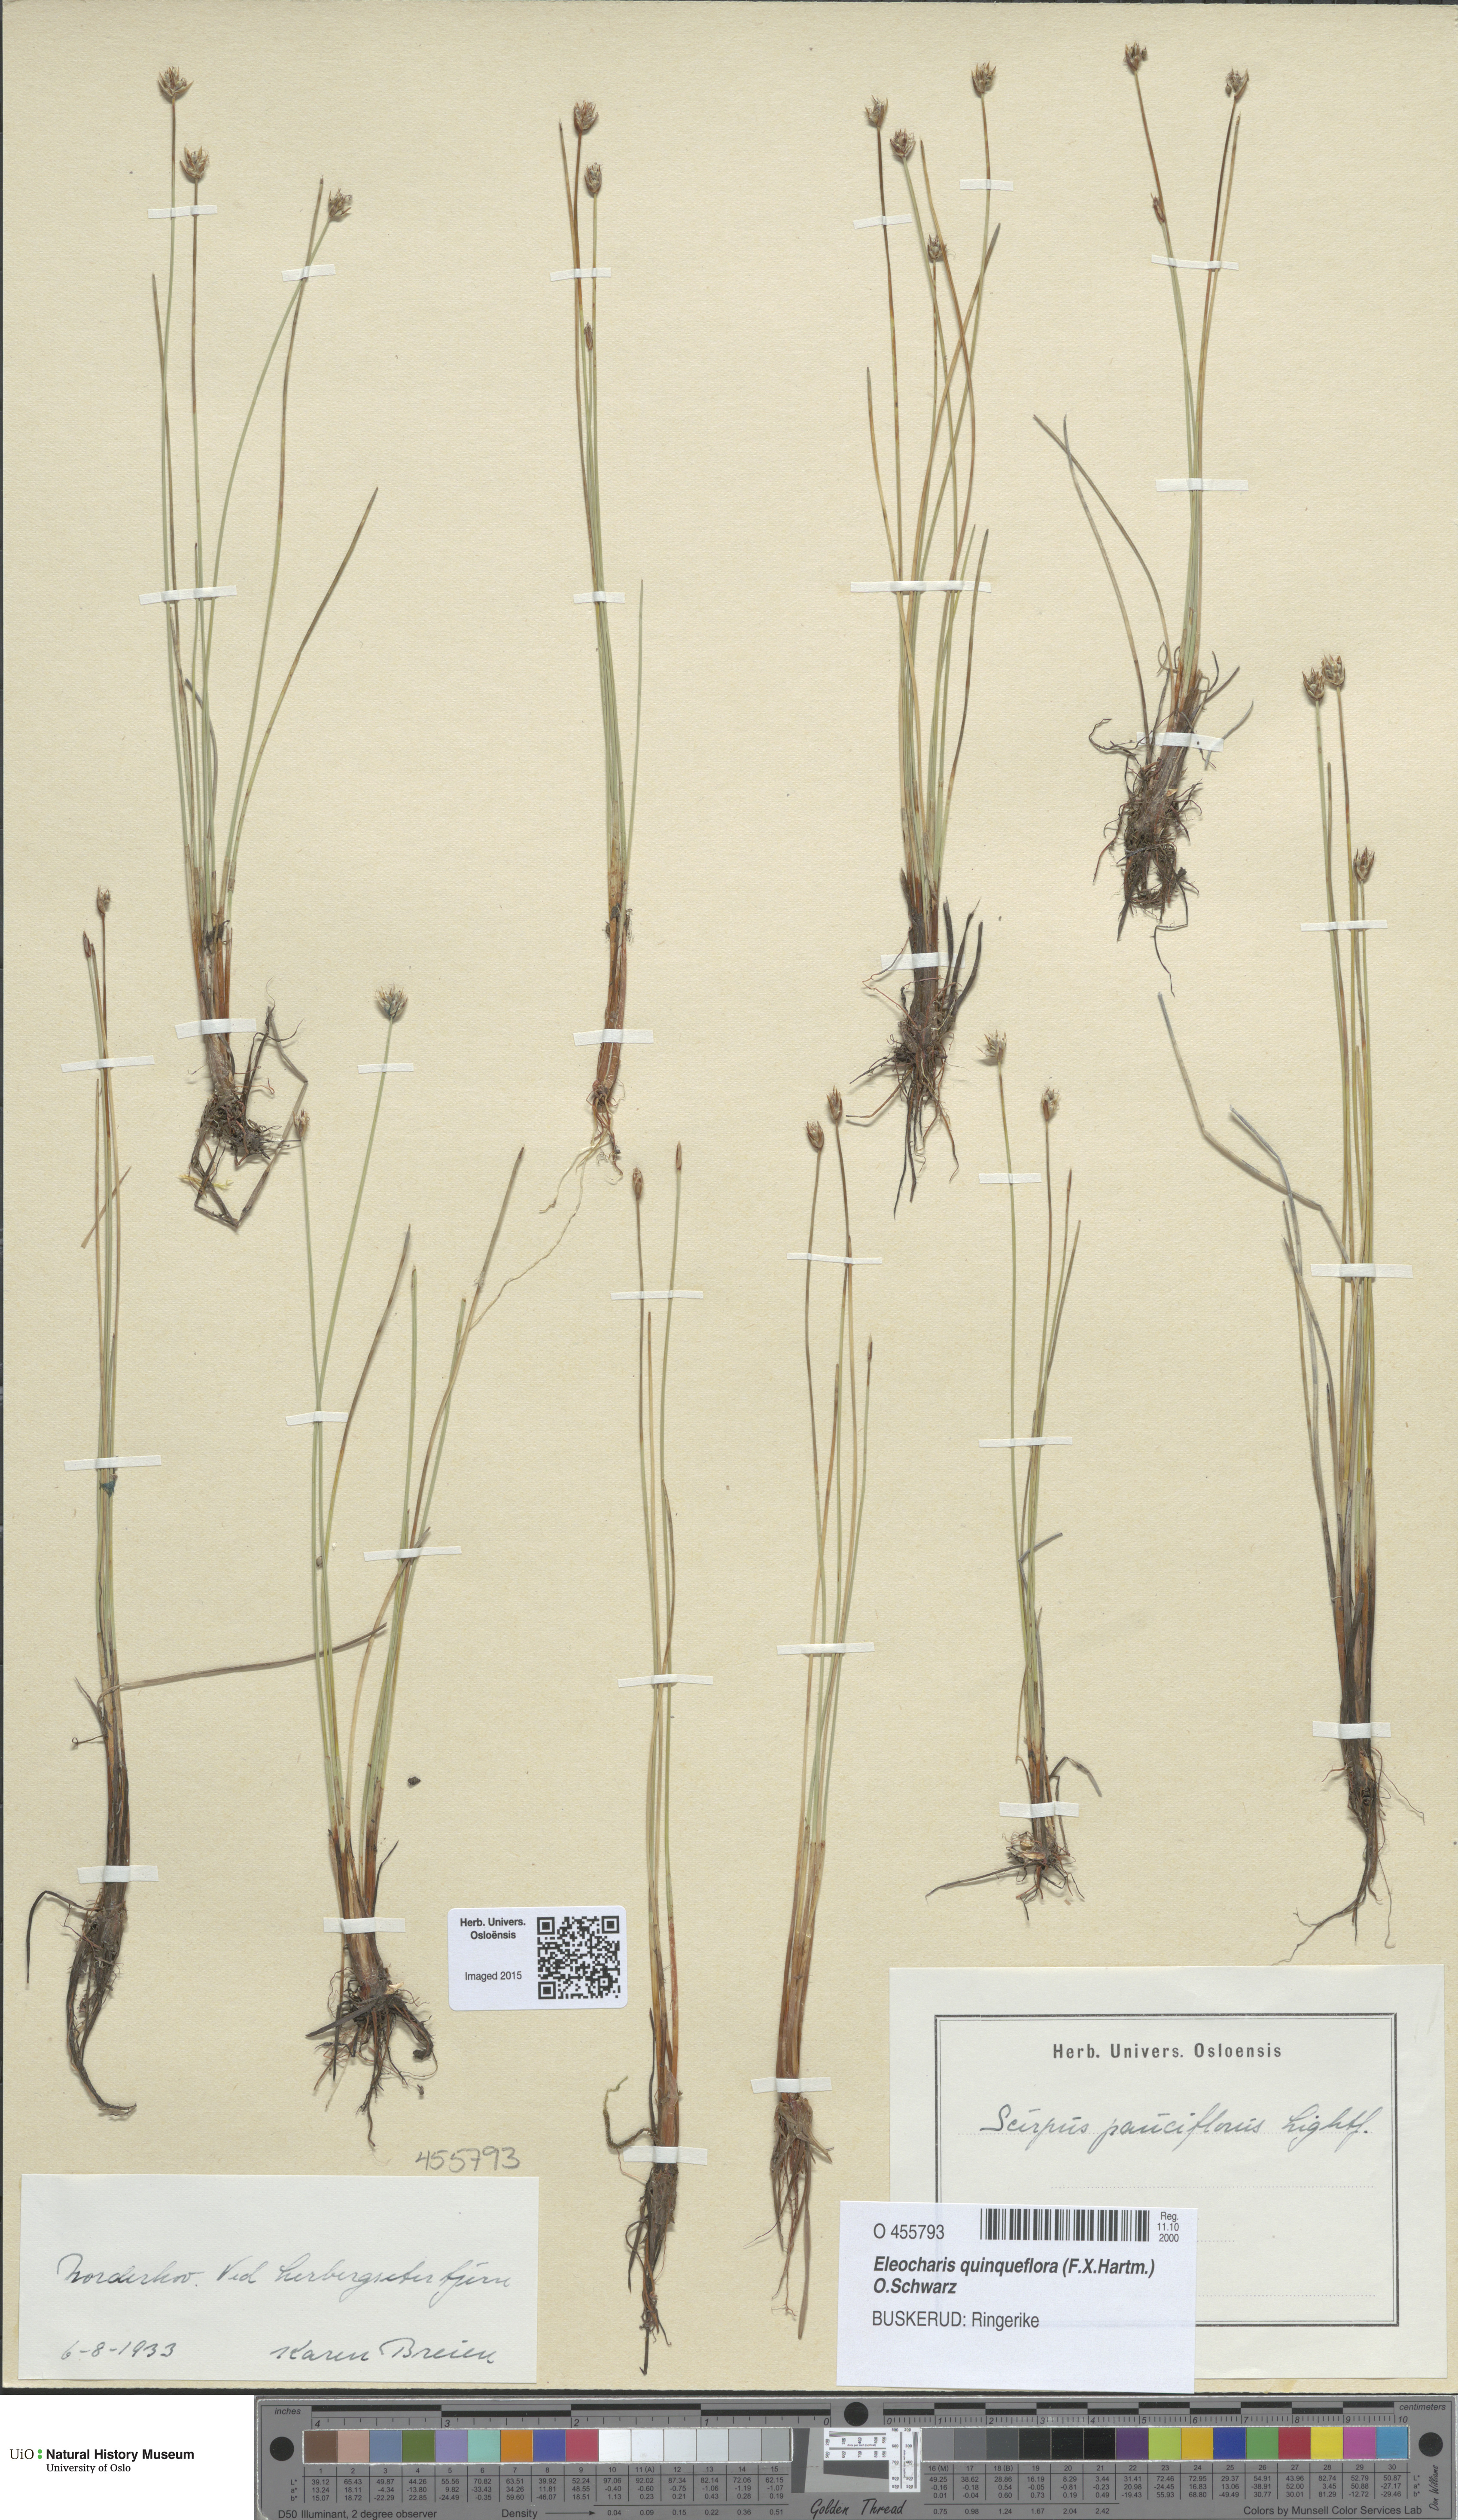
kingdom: Plantae
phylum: Tracheophyta
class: Liliopsida
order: Poales
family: Cyperaceae
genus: Eleocharis
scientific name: Eleocharis quinqueflora
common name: Few-flowered spike-rush
